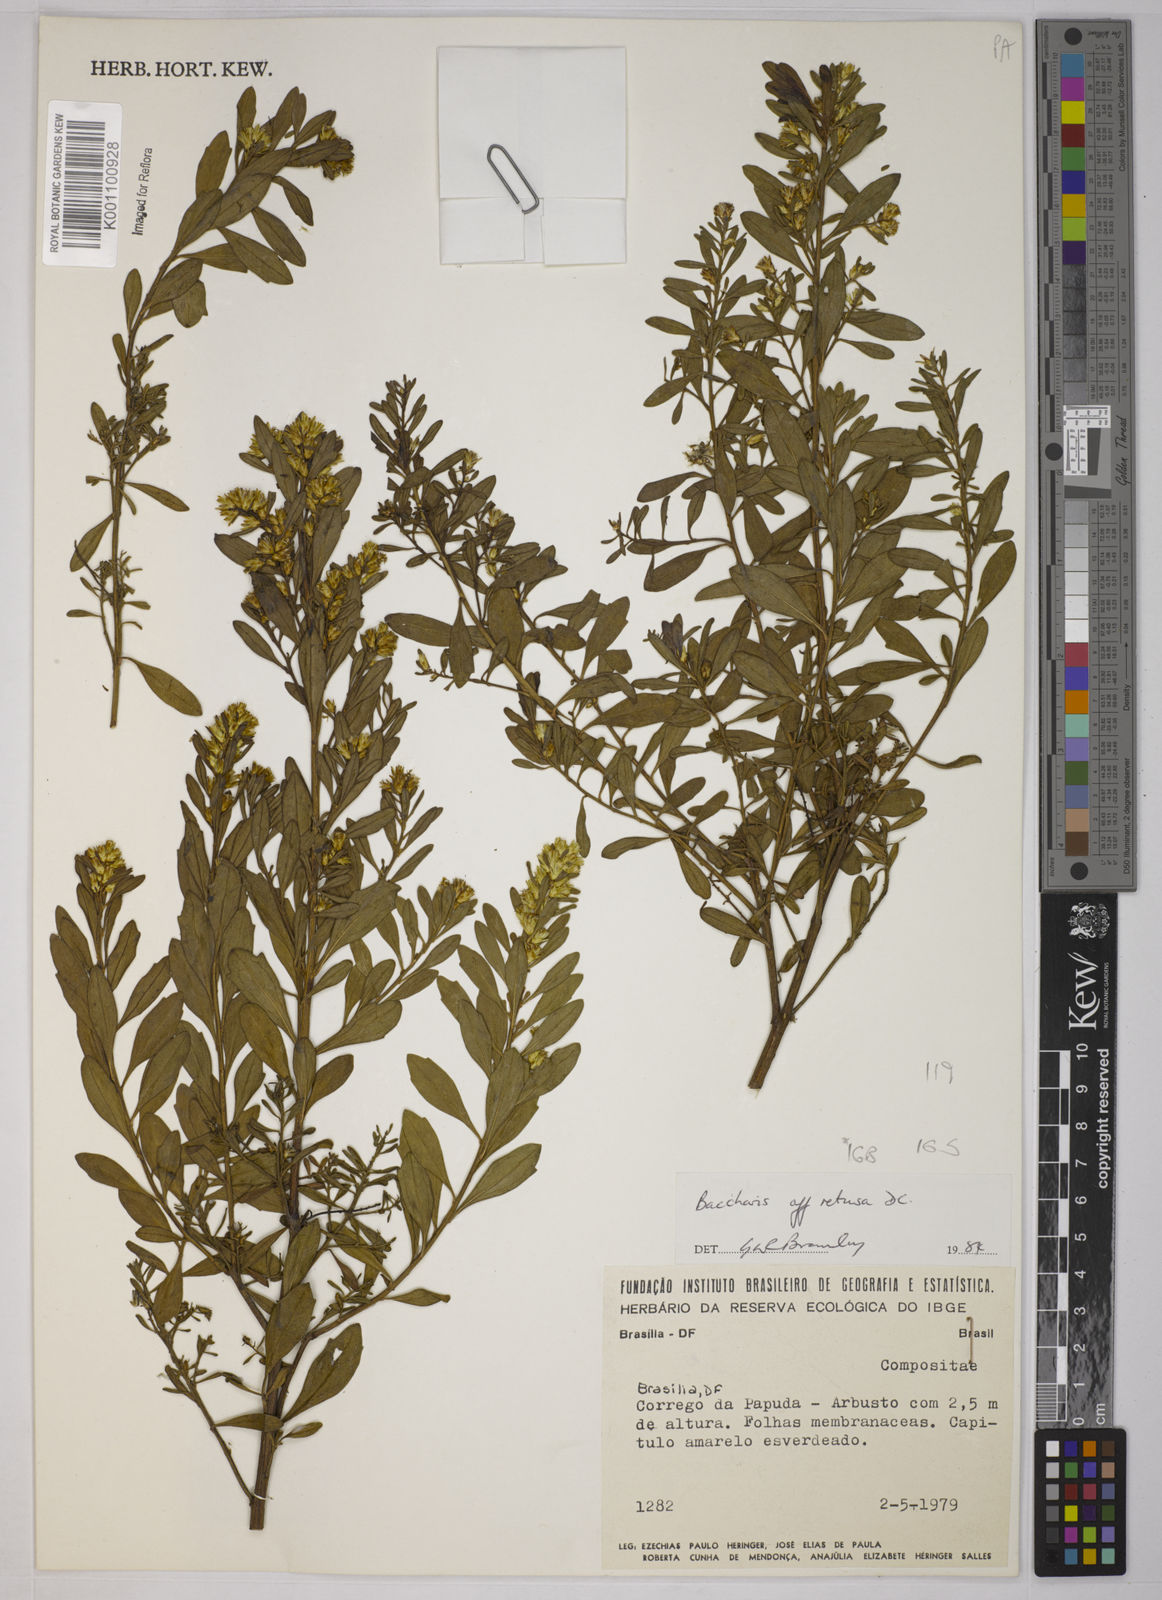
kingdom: Plantae
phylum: Tracheophyta
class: Magnoliopsida
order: Asterales
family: Asteraceae
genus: Baccharis
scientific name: Baccharis retusa
